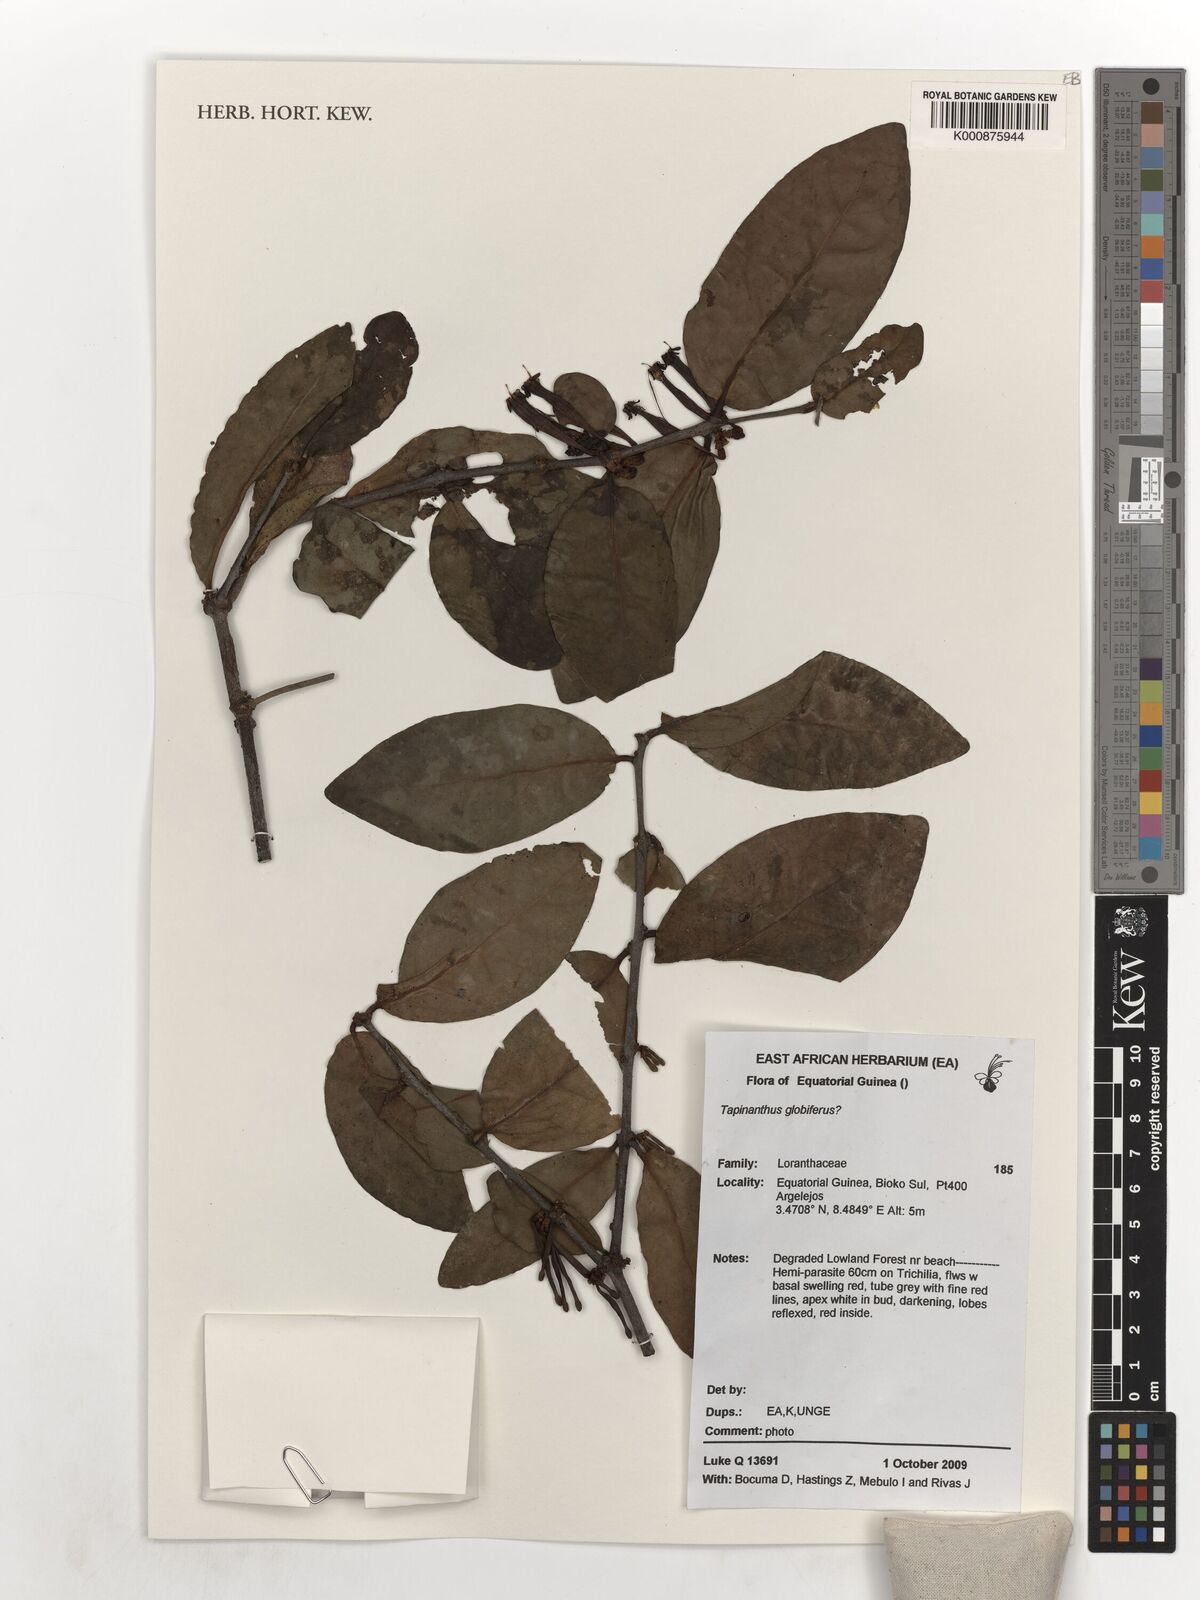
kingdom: Plantae
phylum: Tracheophyta
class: Magnoliopsida
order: Santalales
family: Loranthaceae
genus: Tapinanthus
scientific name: Tapinanthus
